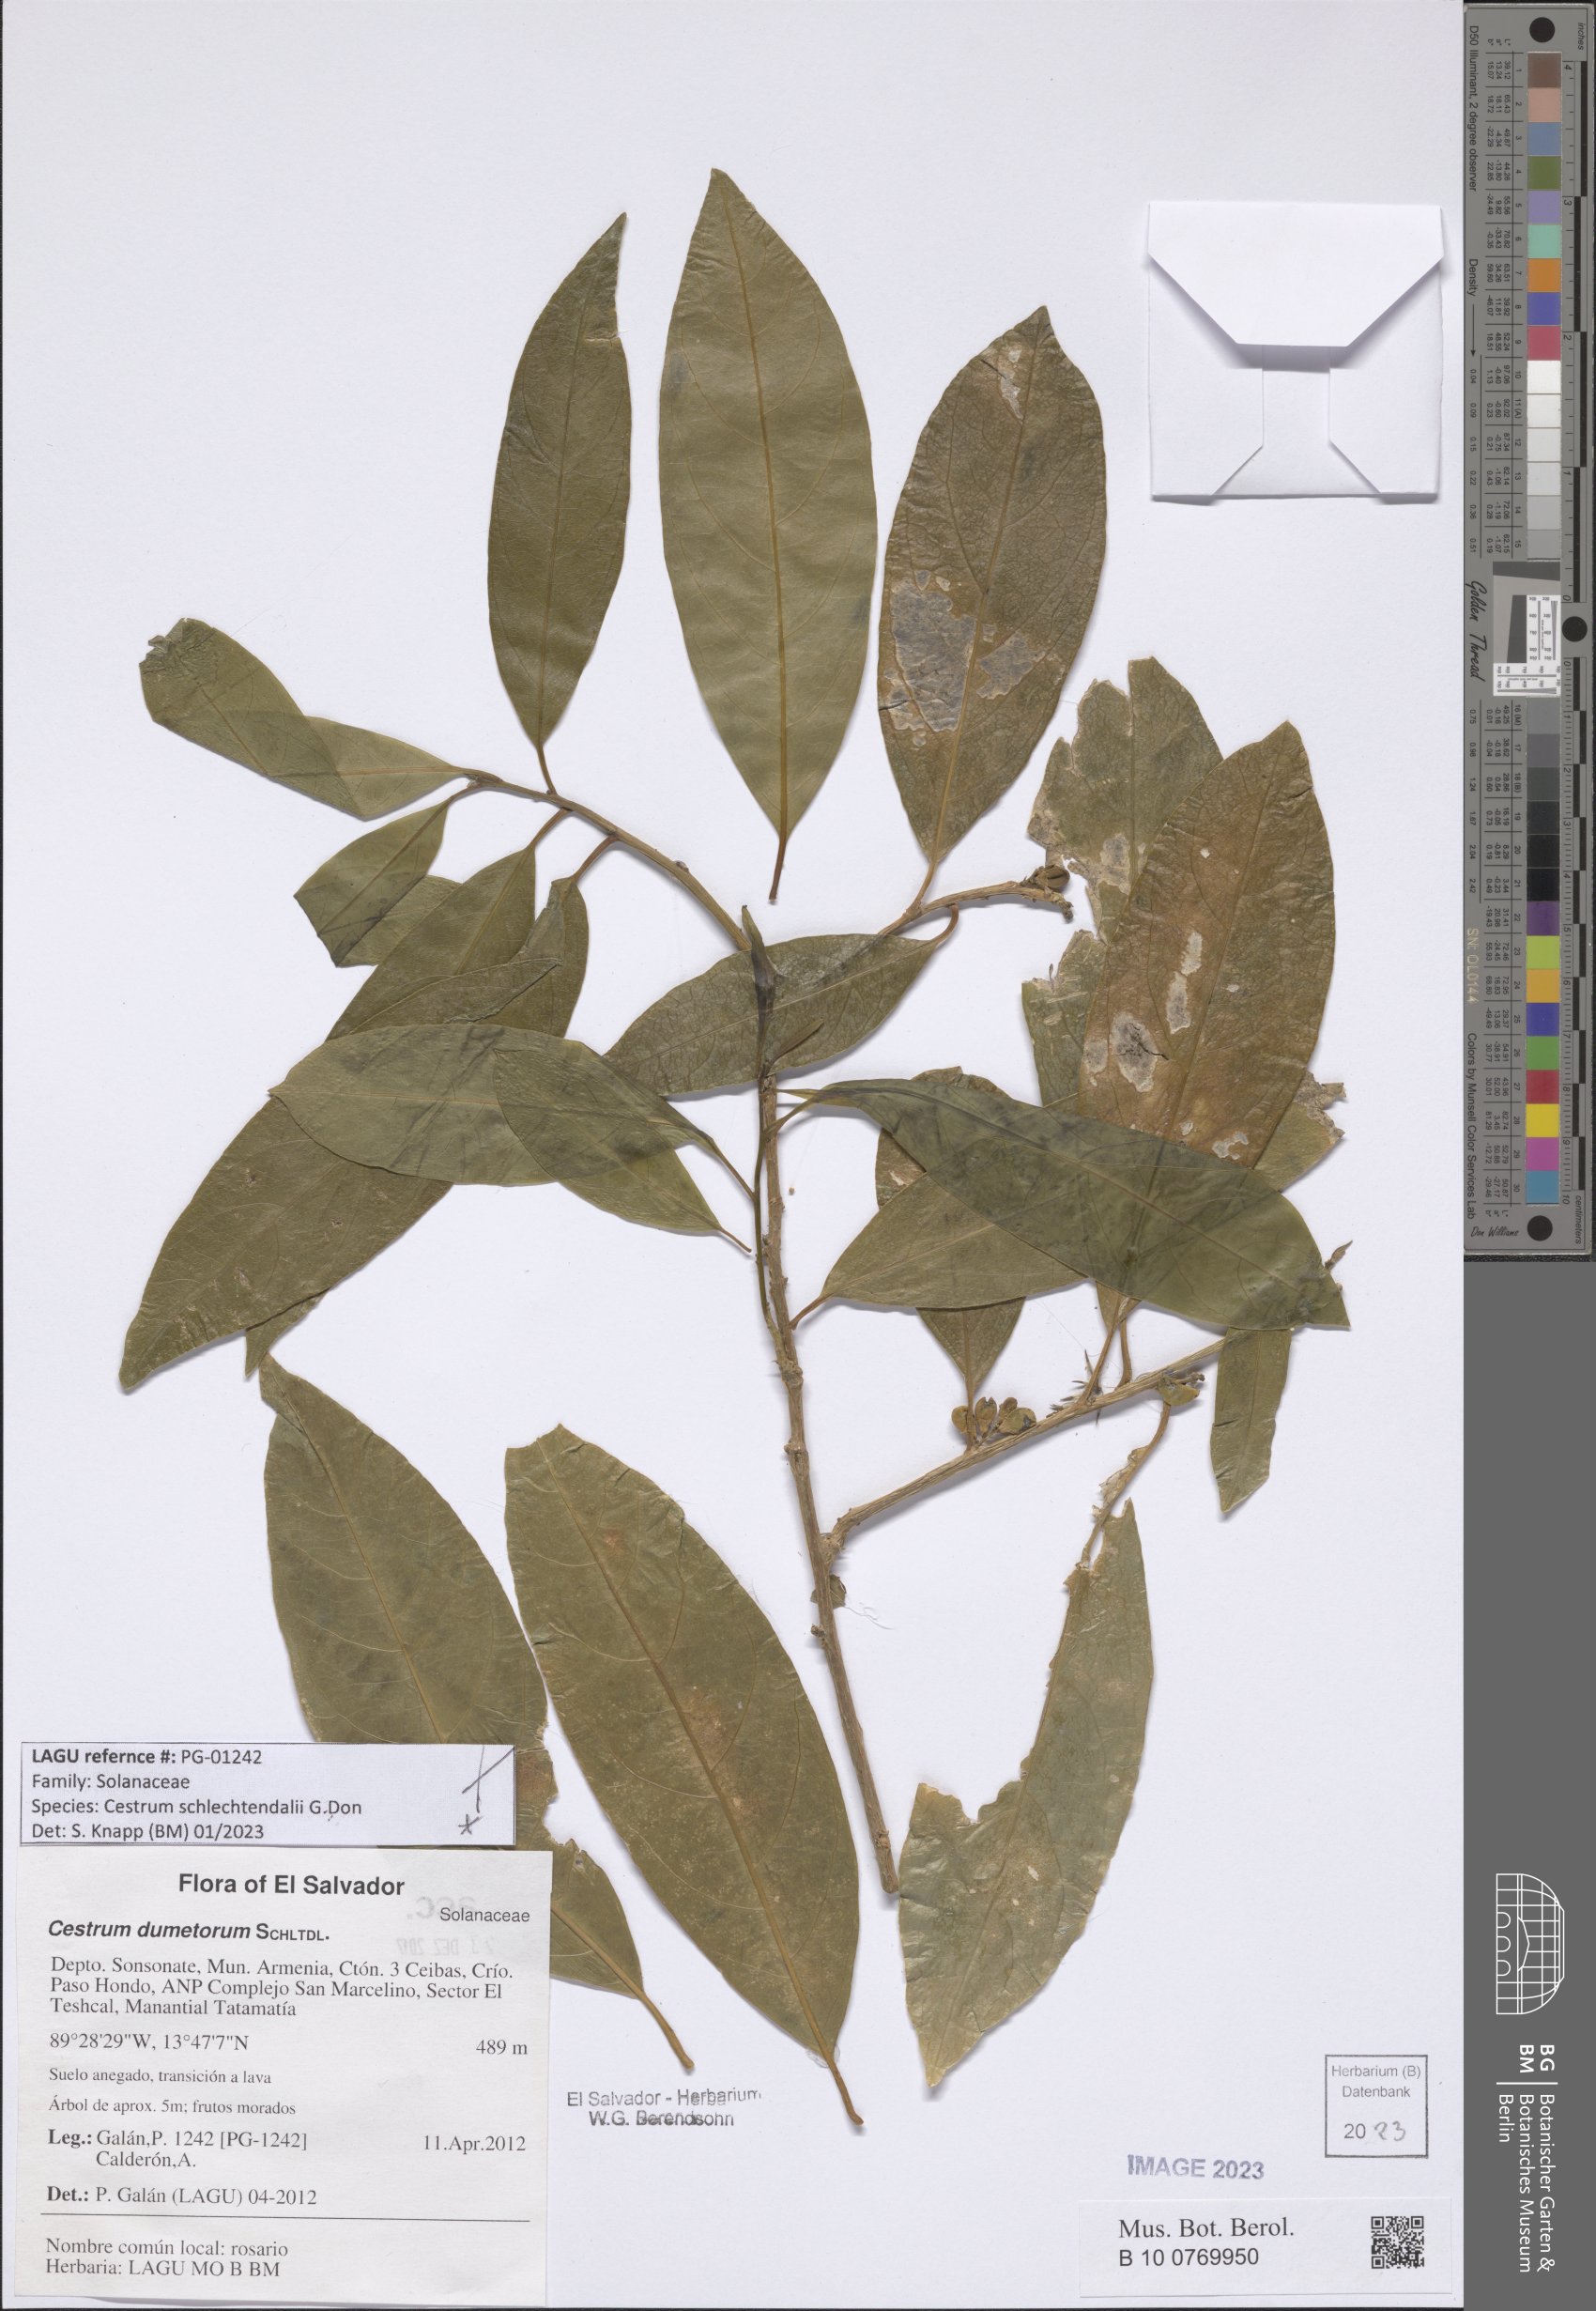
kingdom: Plantae
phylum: Tracheophyta
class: Magnoliopsida
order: Solanales
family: Solanaceae
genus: Cestrum
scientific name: Cestrum schlechtendalii
